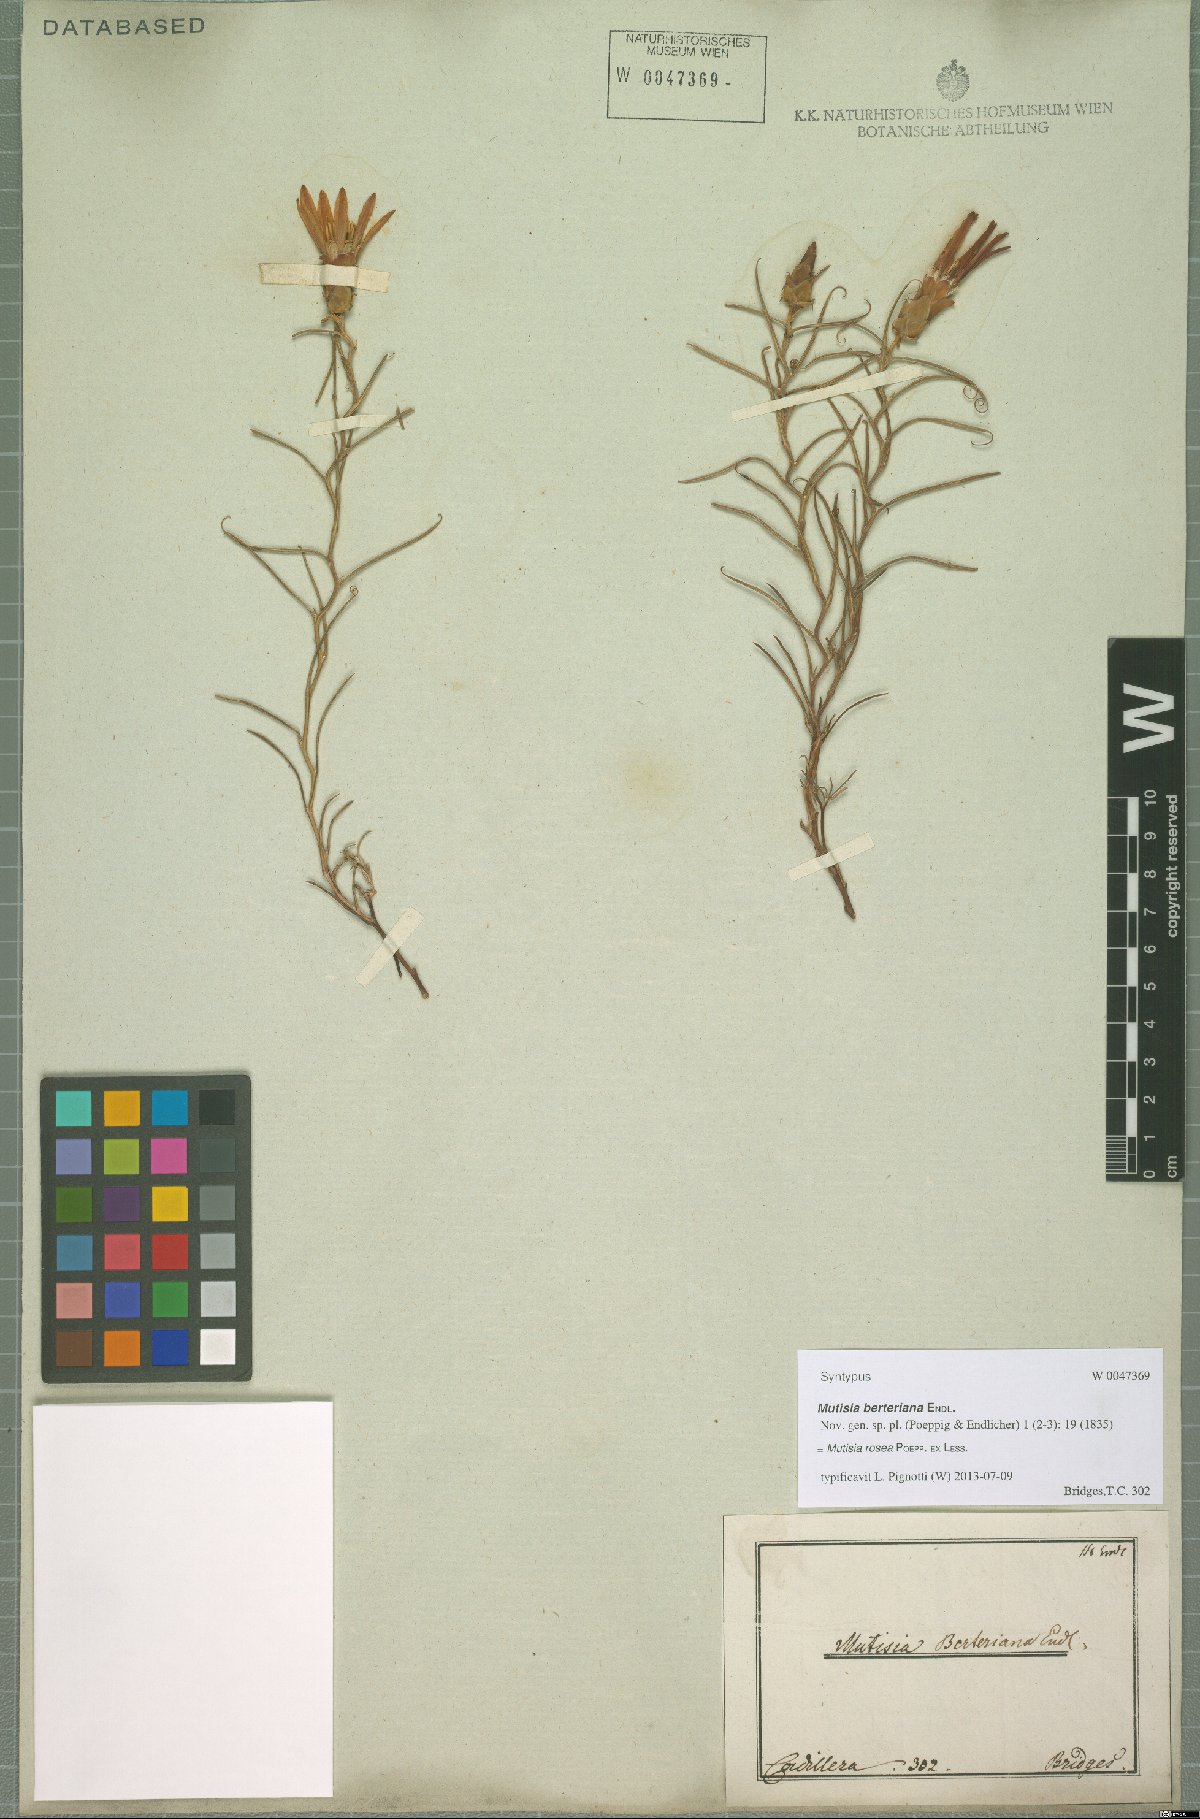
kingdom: Plantae
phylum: Tracheophyta
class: Magnoliopsida
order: Asterales
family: Asteraceae
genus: Mutisia
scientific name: Mutisia rosea
